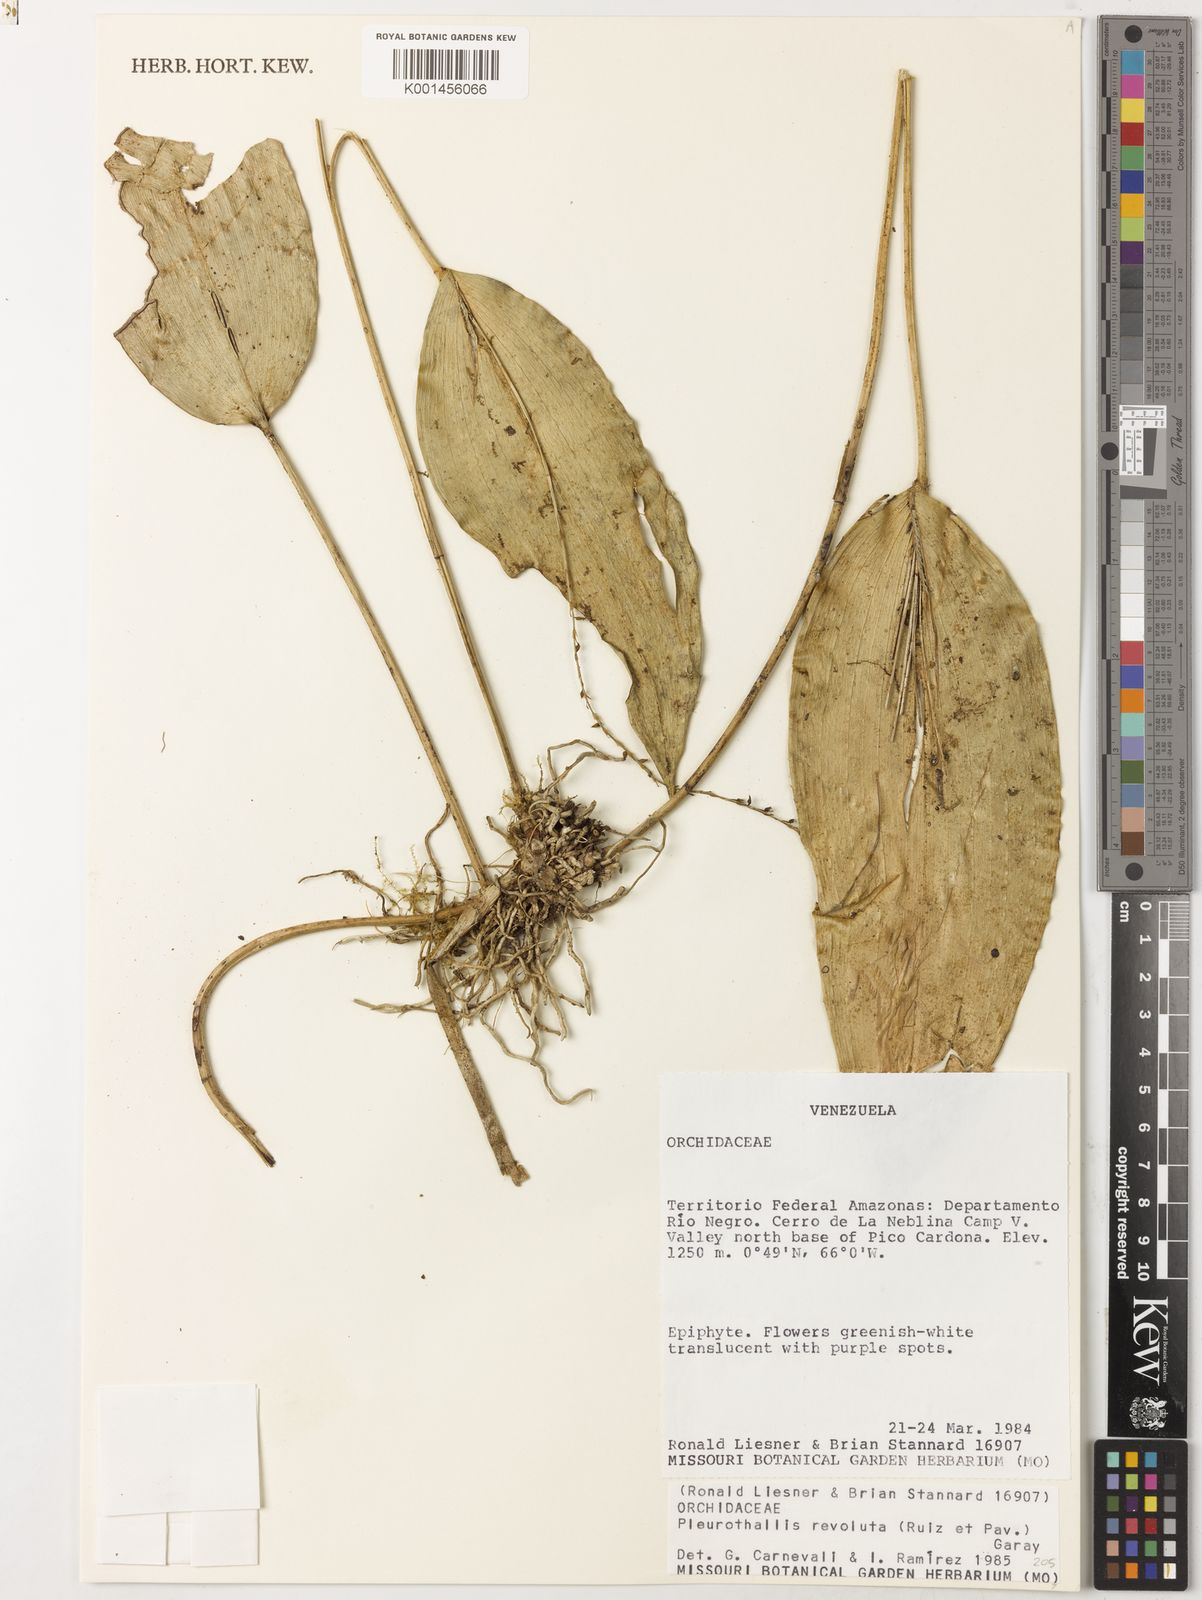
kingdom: Plantae
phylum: Tracheophyta
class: Liliopsida
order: Asparagales
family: Orchidaceae
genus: Pleurothallis
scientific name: Pleurothallis revoluta
